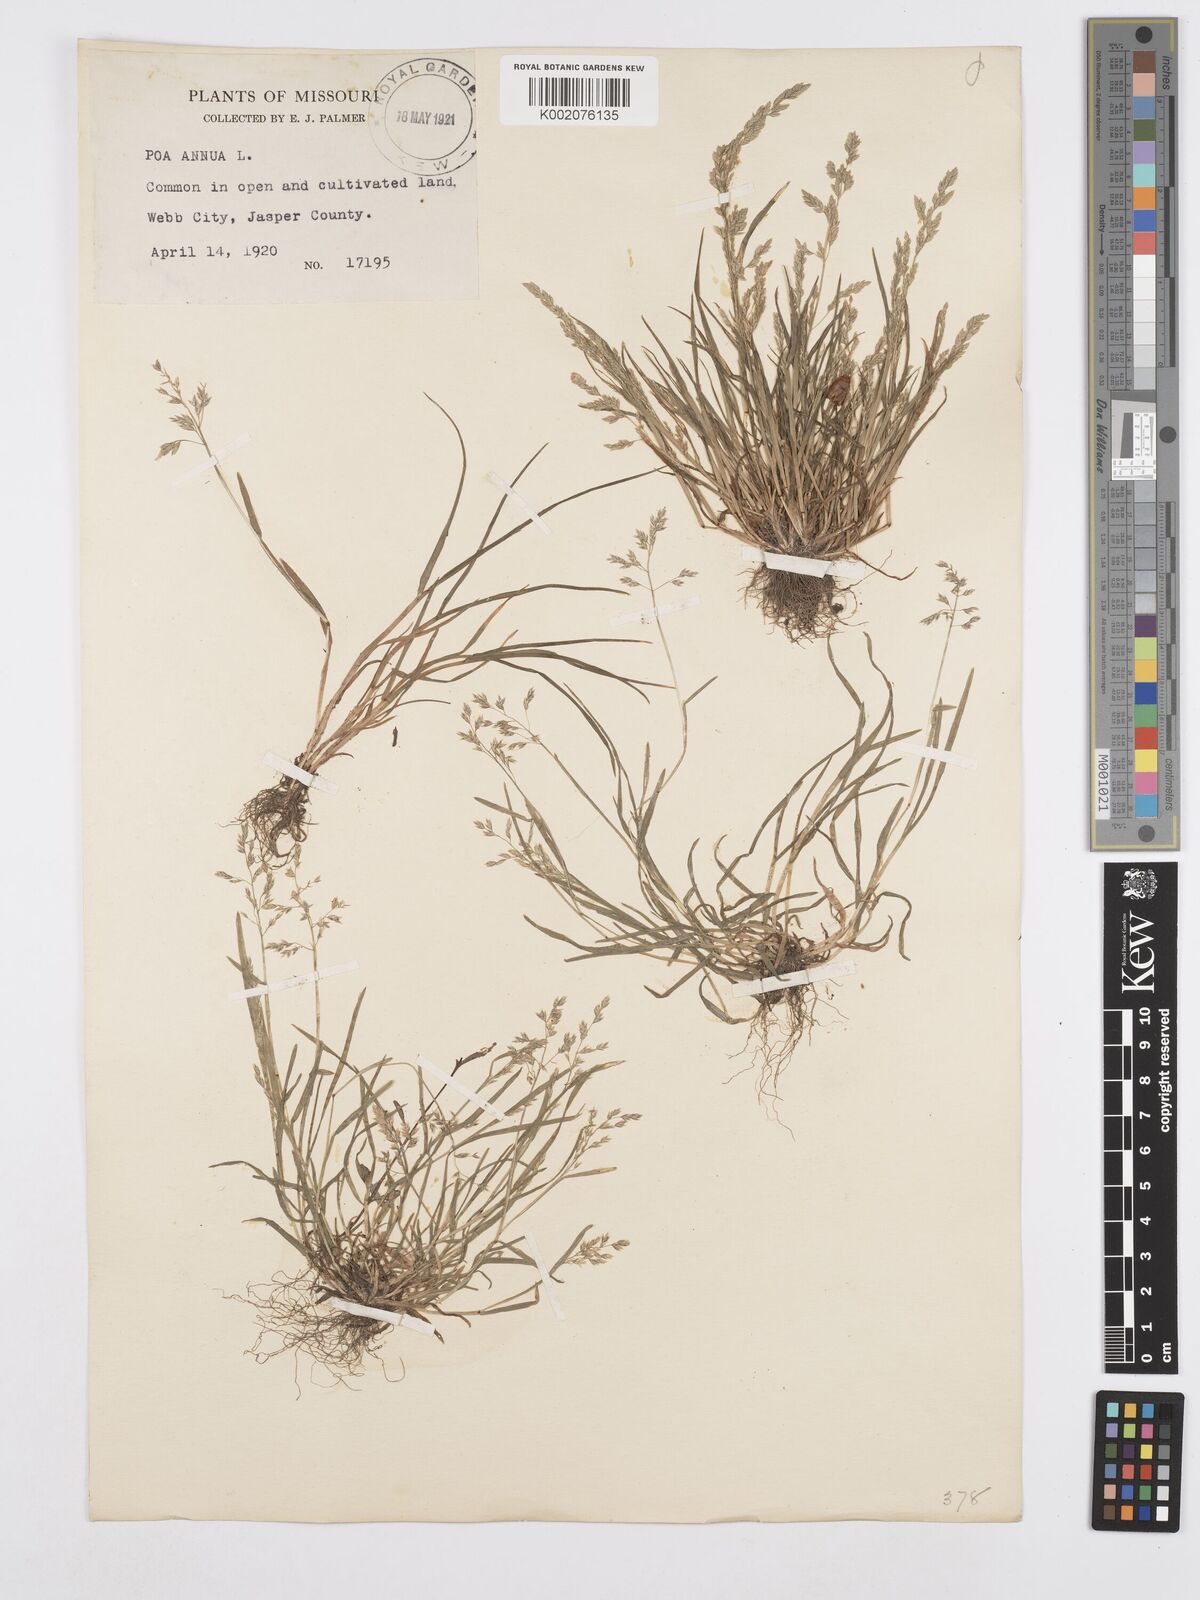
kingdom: Plantae
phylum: Tracheophyta
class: Liliopsida
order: Poales
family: Poaceae
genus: Poa
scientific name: Poa annua
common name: Annual bluegrass
